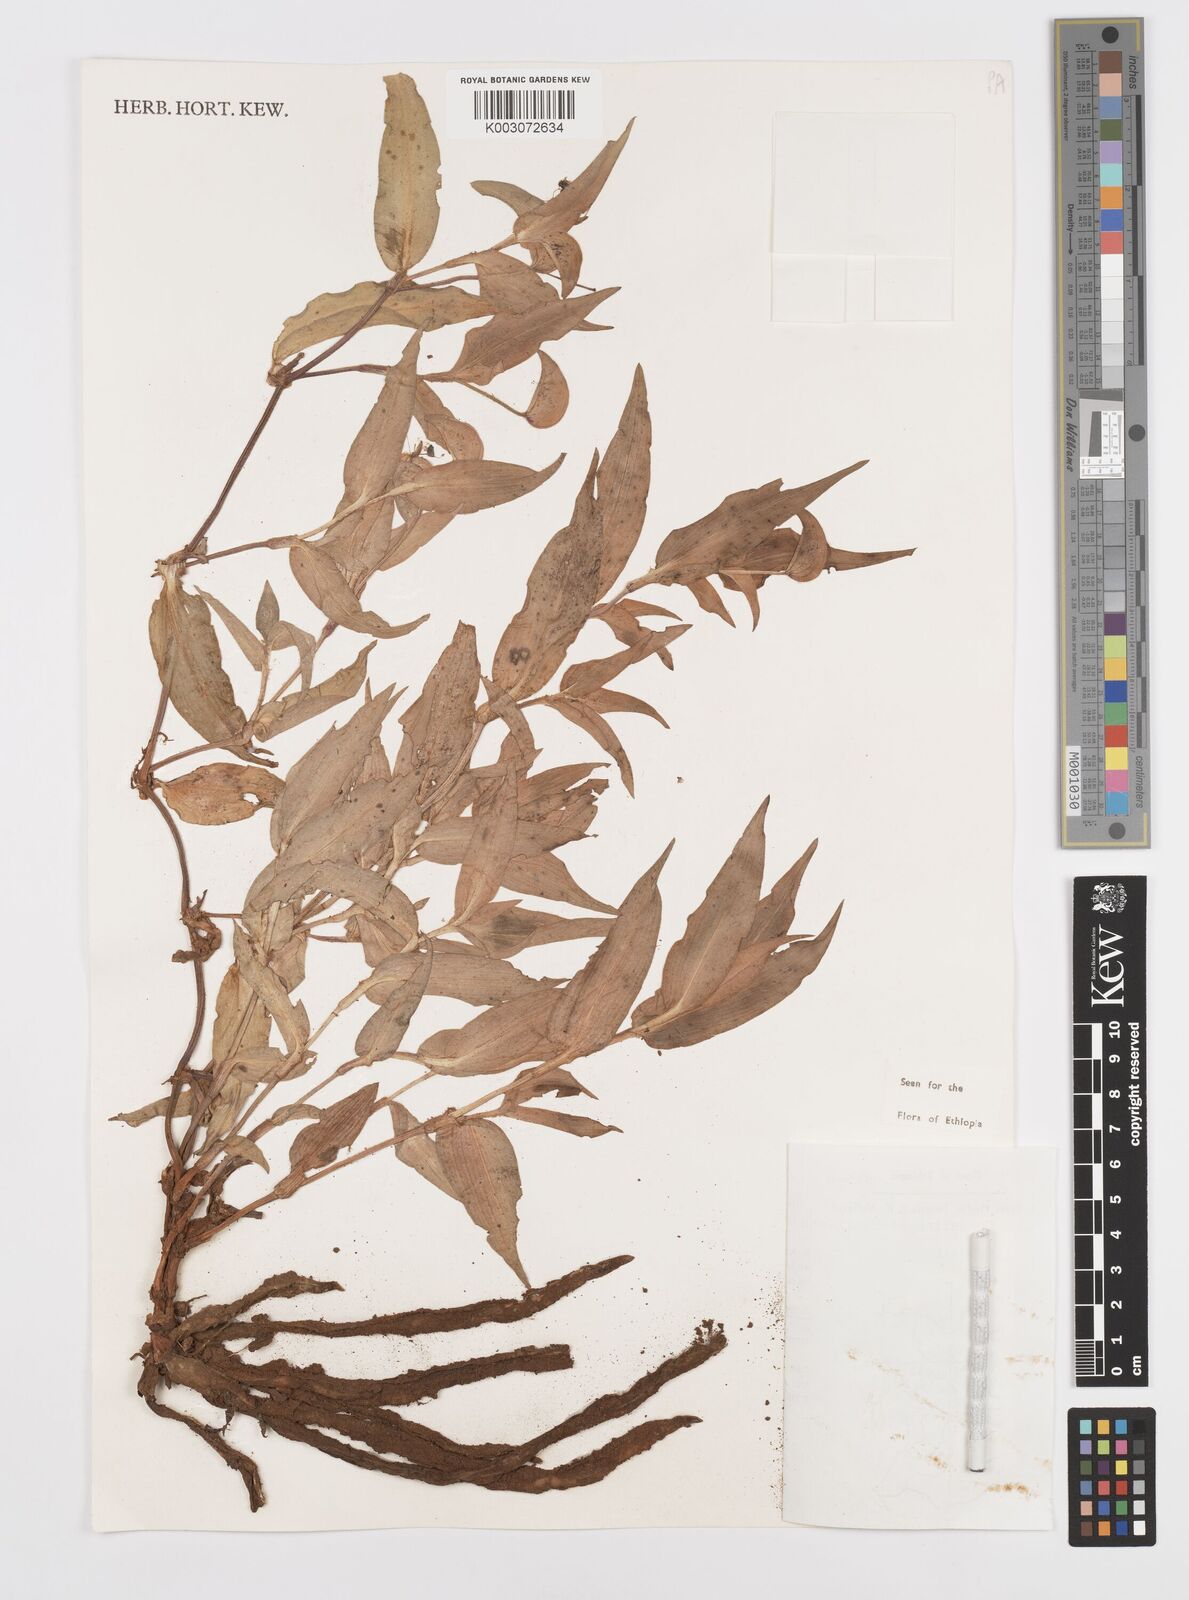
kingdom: Plantae
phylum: Tracheophyta
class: Liliopsida
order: Commelinales
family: Commelinaceae
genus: Commelina
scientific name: Commelina stefaniniana
